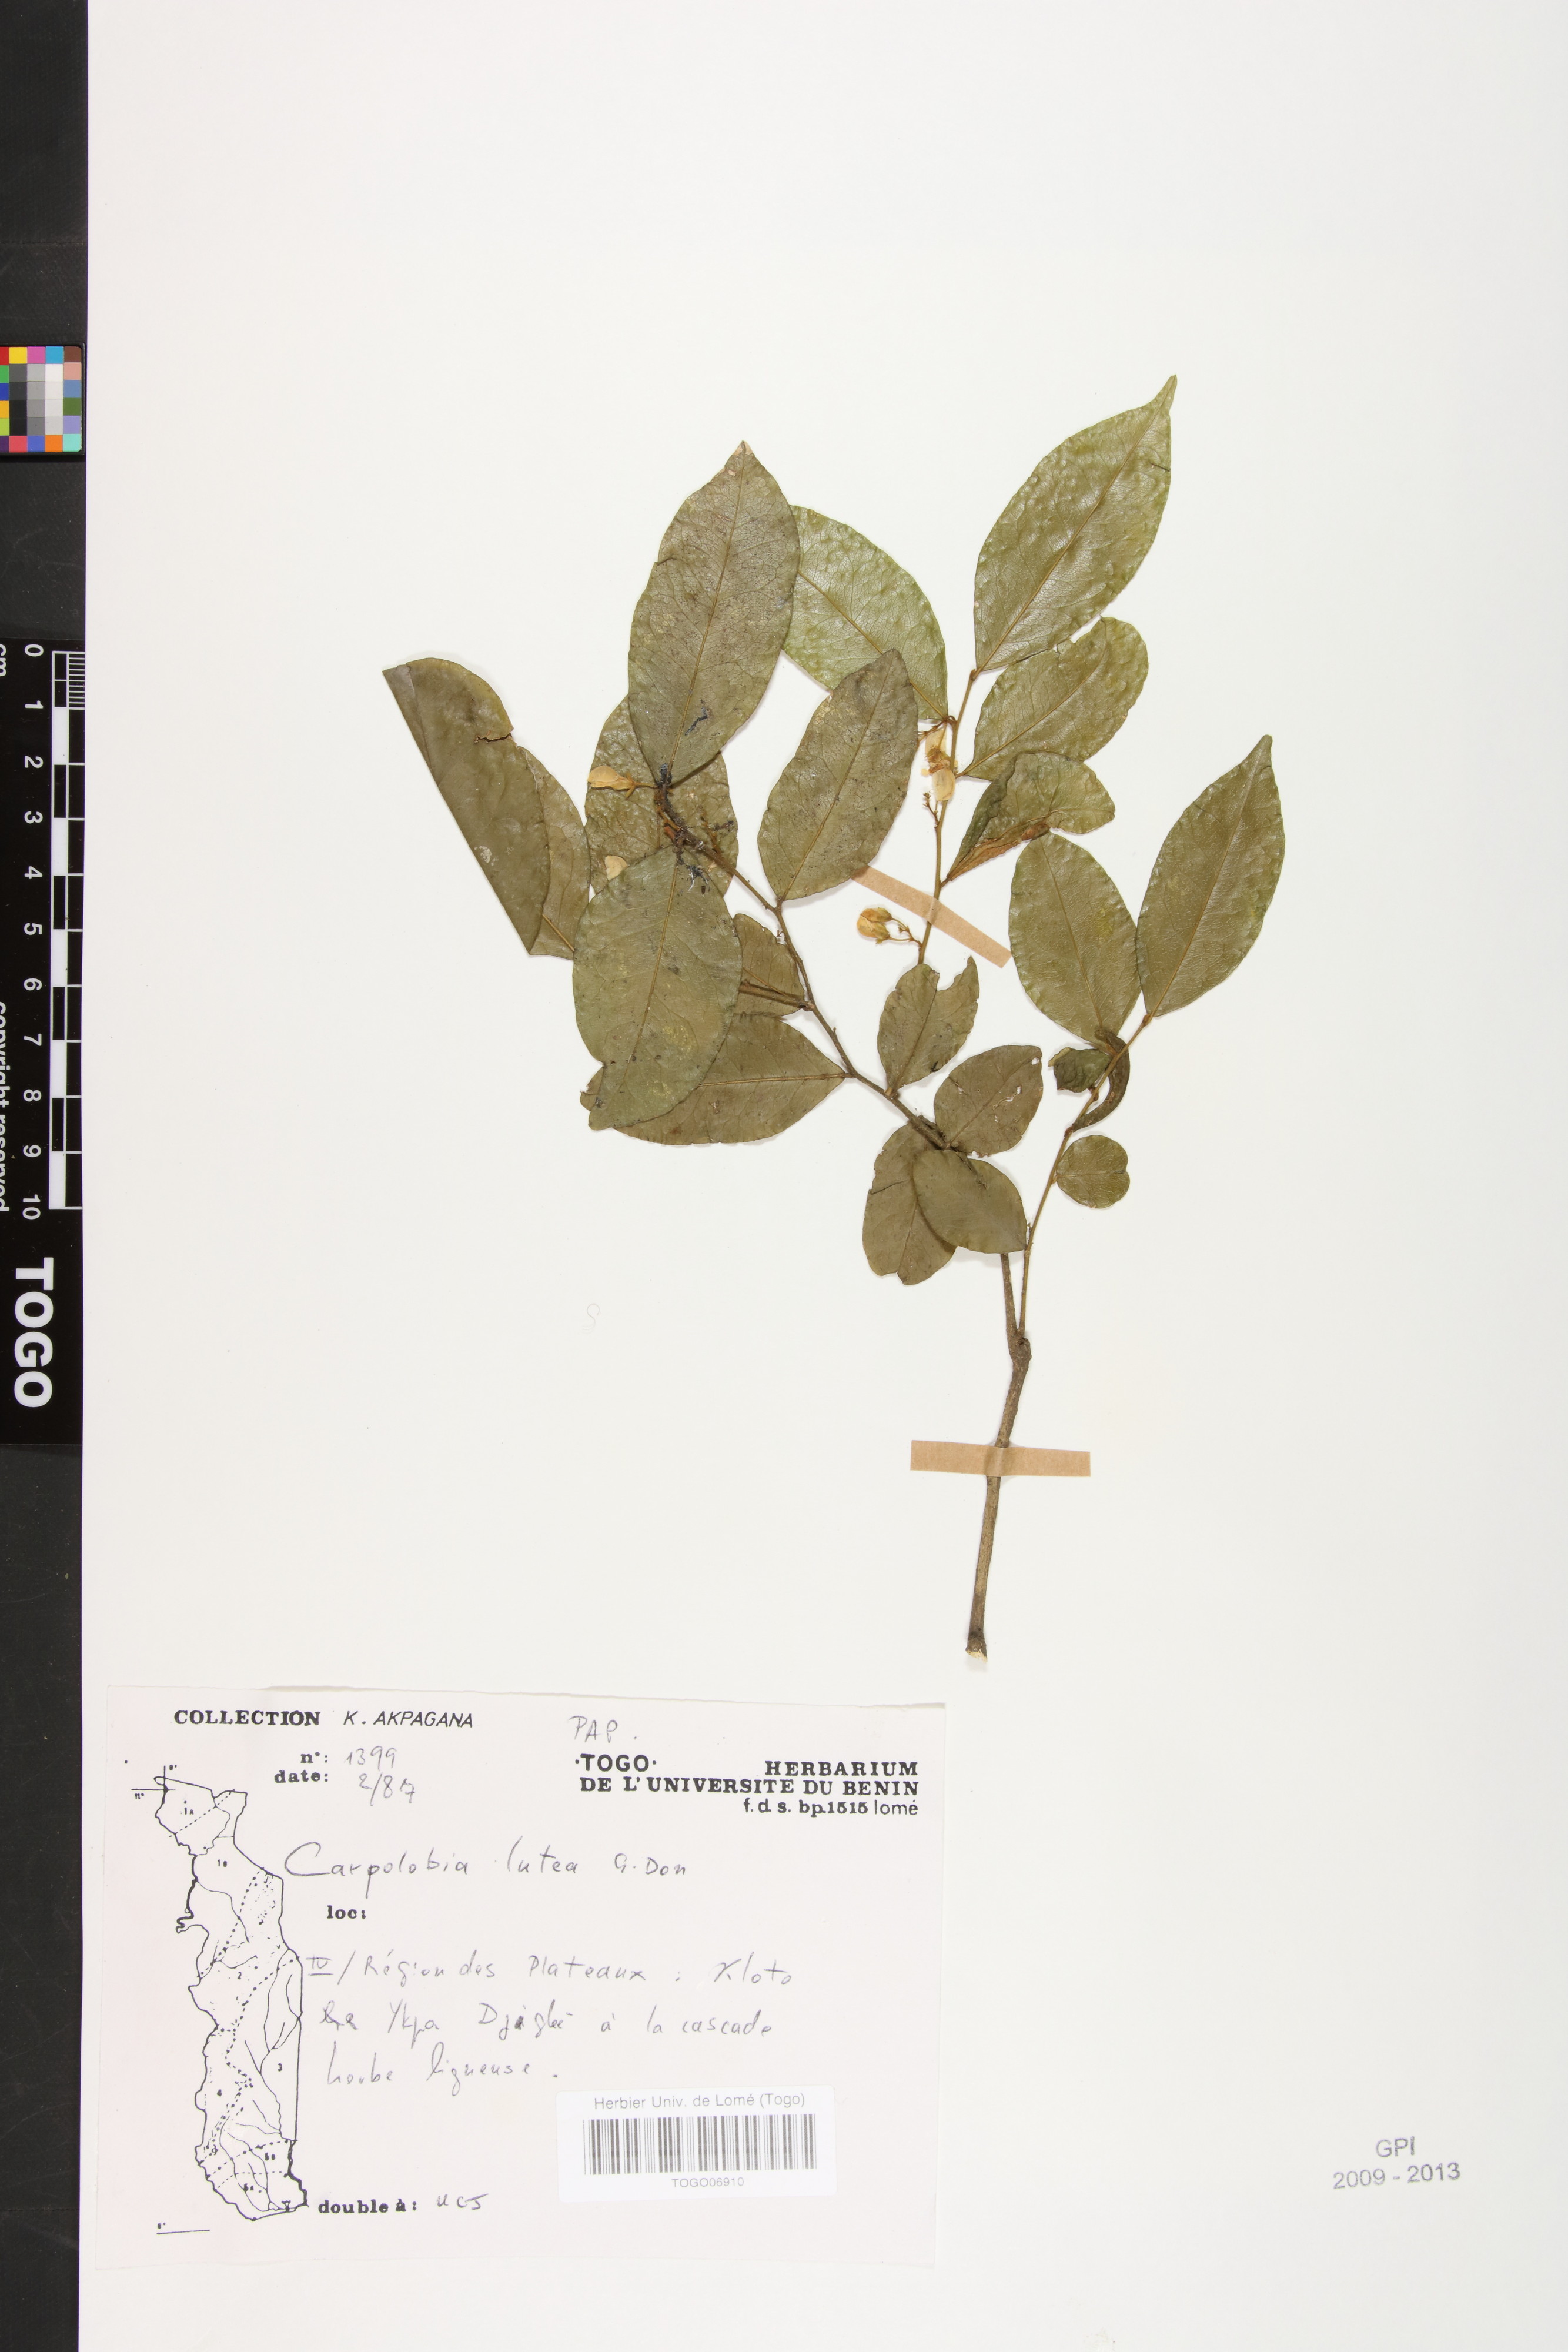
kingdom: Plantae
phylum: Tracheophyta
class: Magnoliopsida
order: Fabales
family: Polygalaceae
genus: Carpolobia
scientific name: Carpolobia lutea
